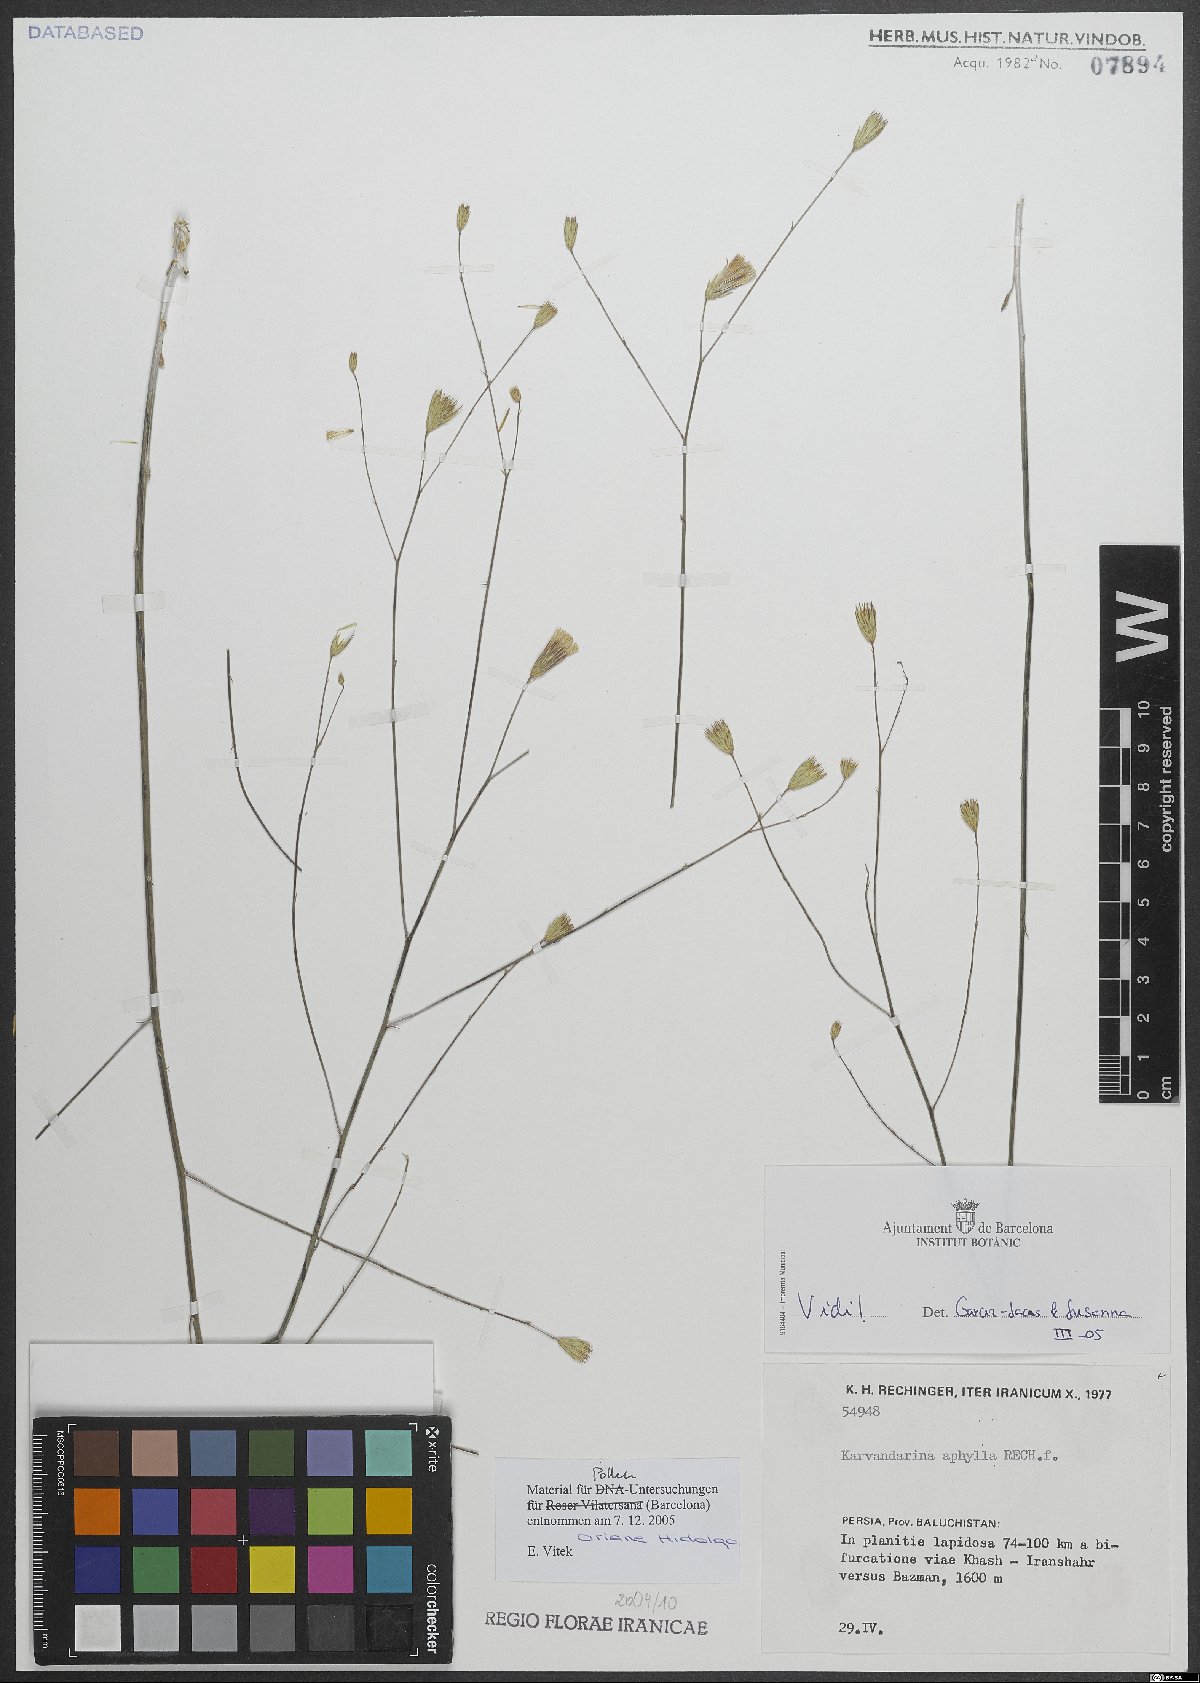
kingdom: Plantae
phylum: Tracheophyta
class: Magnoliopsida
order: Asterales
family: Asteraceae
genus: Karvandarina
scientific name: Karvandarina aphylla
